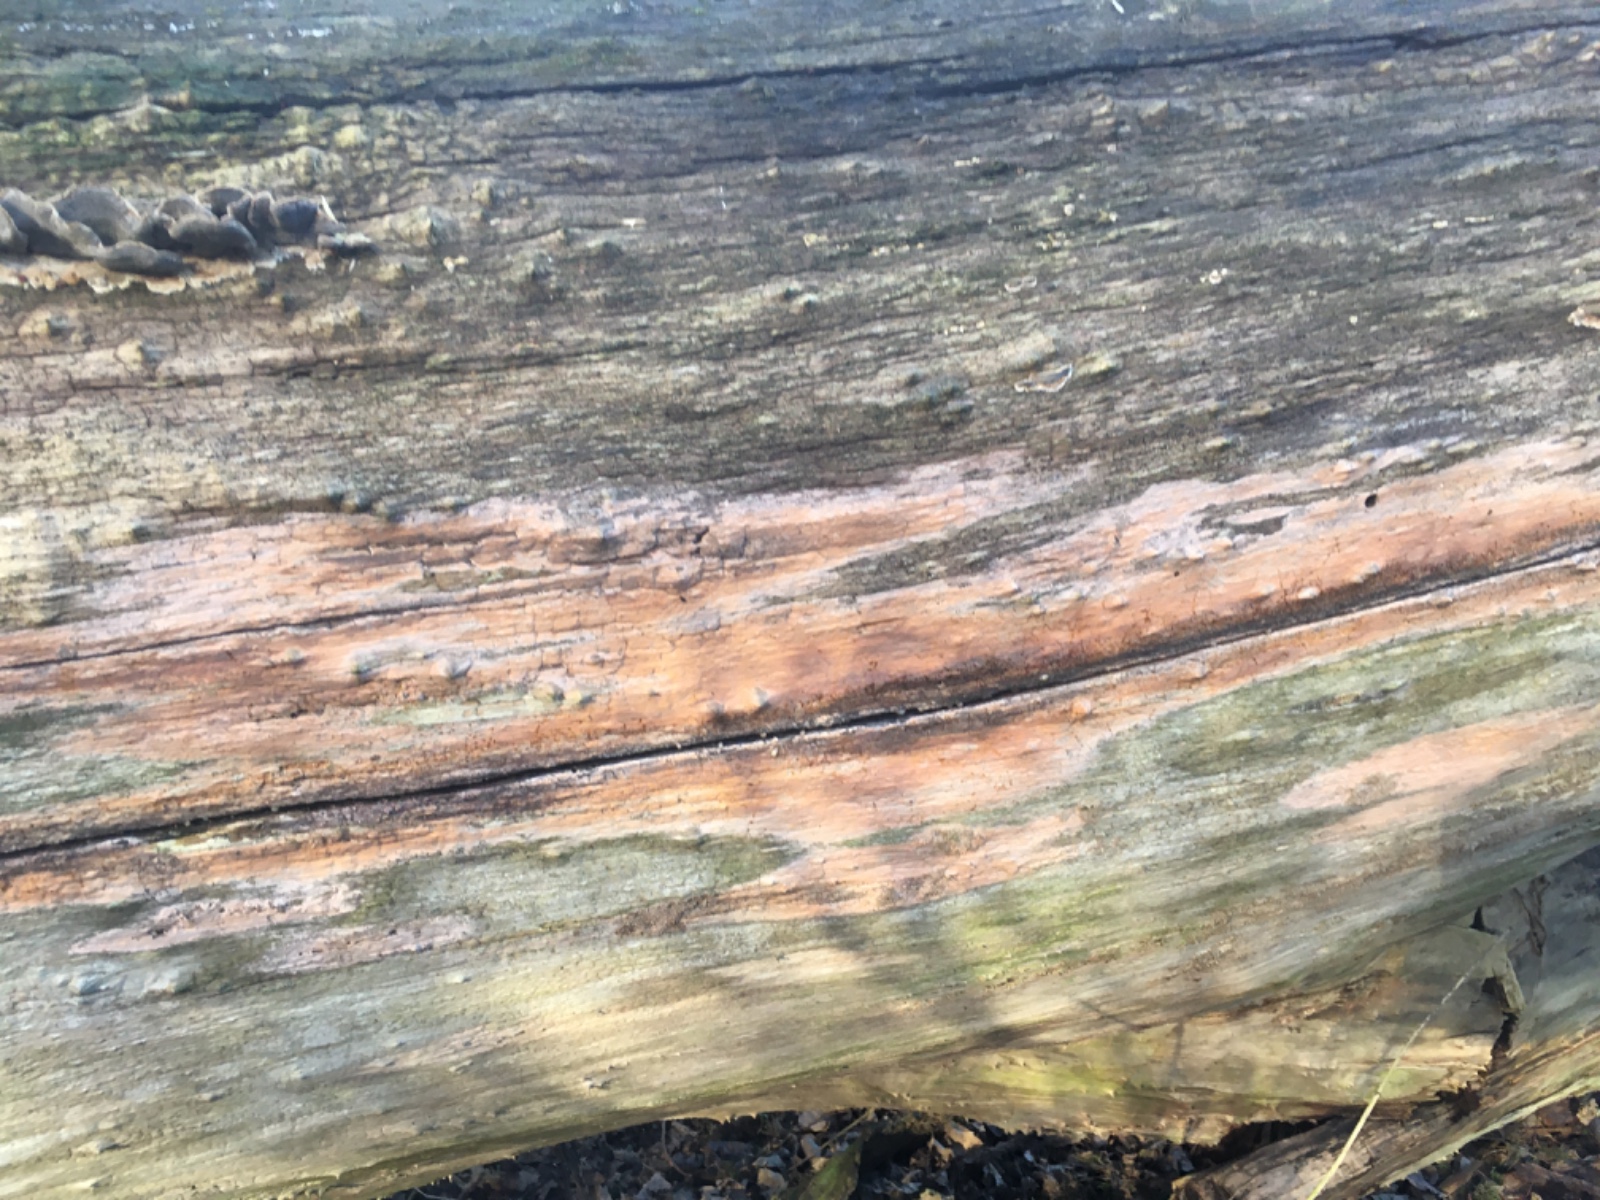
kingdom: Fungi
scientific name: Fungi
